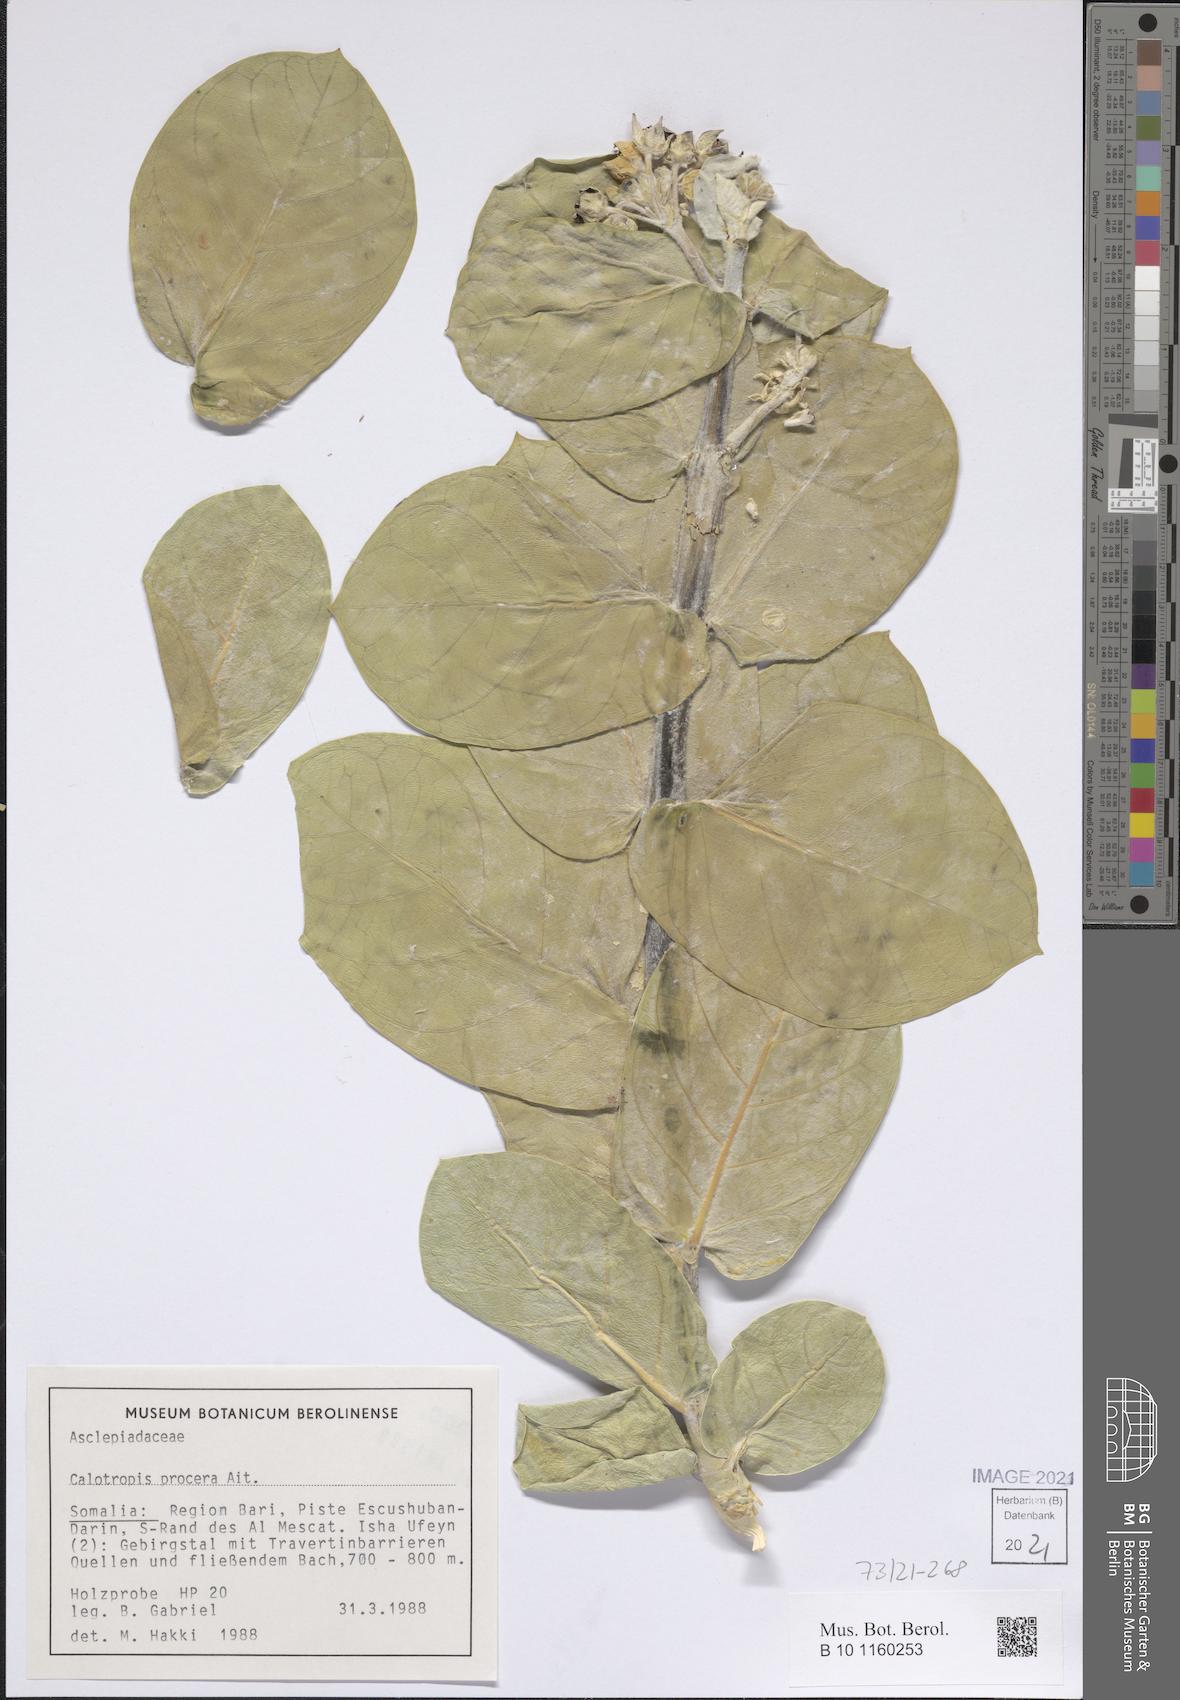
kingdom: Plantae
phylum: Tracheophyta
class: Magnoliopsida
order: Gentianales
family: Apocynaceae
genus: Calotropis
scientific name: Calotropis procera
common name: Roostertree
